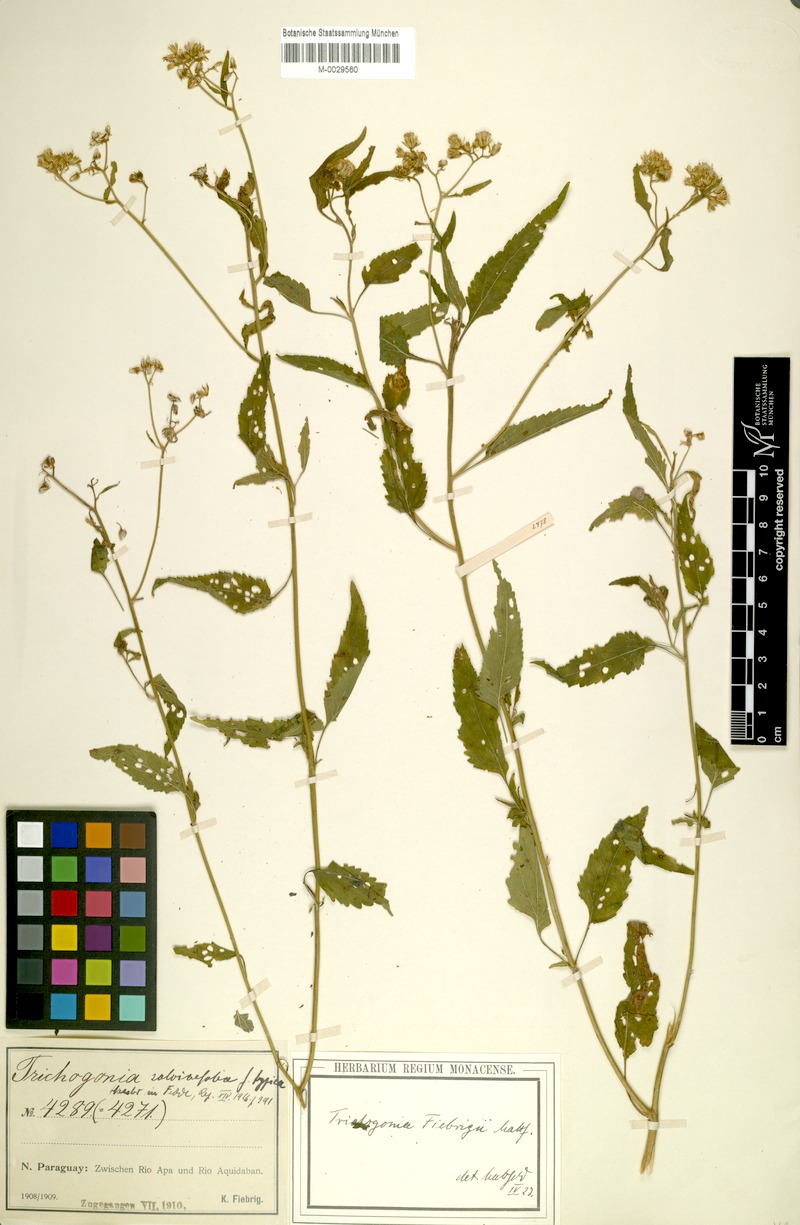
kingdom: Plantae
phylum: Tracheophyta
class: Magnoliopsida
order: Asterales
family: Asteraceae
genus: Trichogonia
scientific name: Trichogonia fiebrigii
